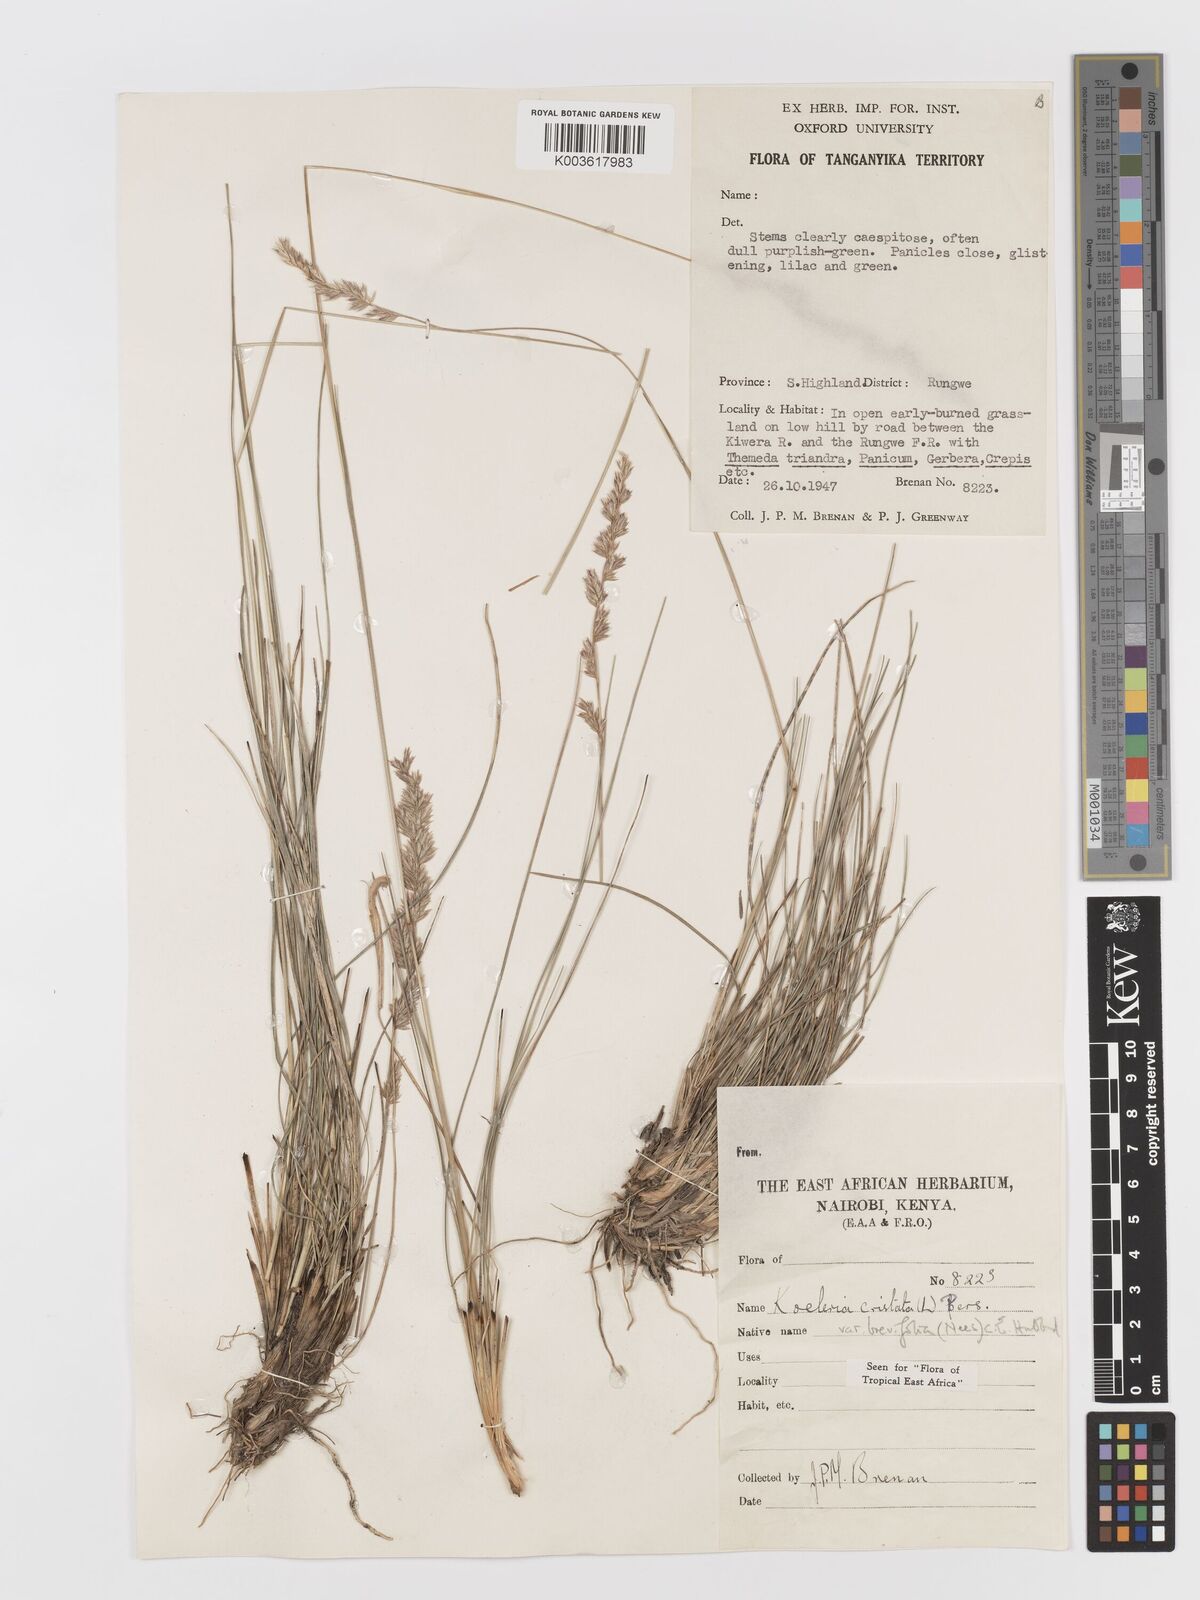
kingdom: Plantae
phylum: Tracheophyta
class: Liliopsida
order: Poales
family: Poaceae
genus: Koeleria
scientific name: Koeleria capensis
